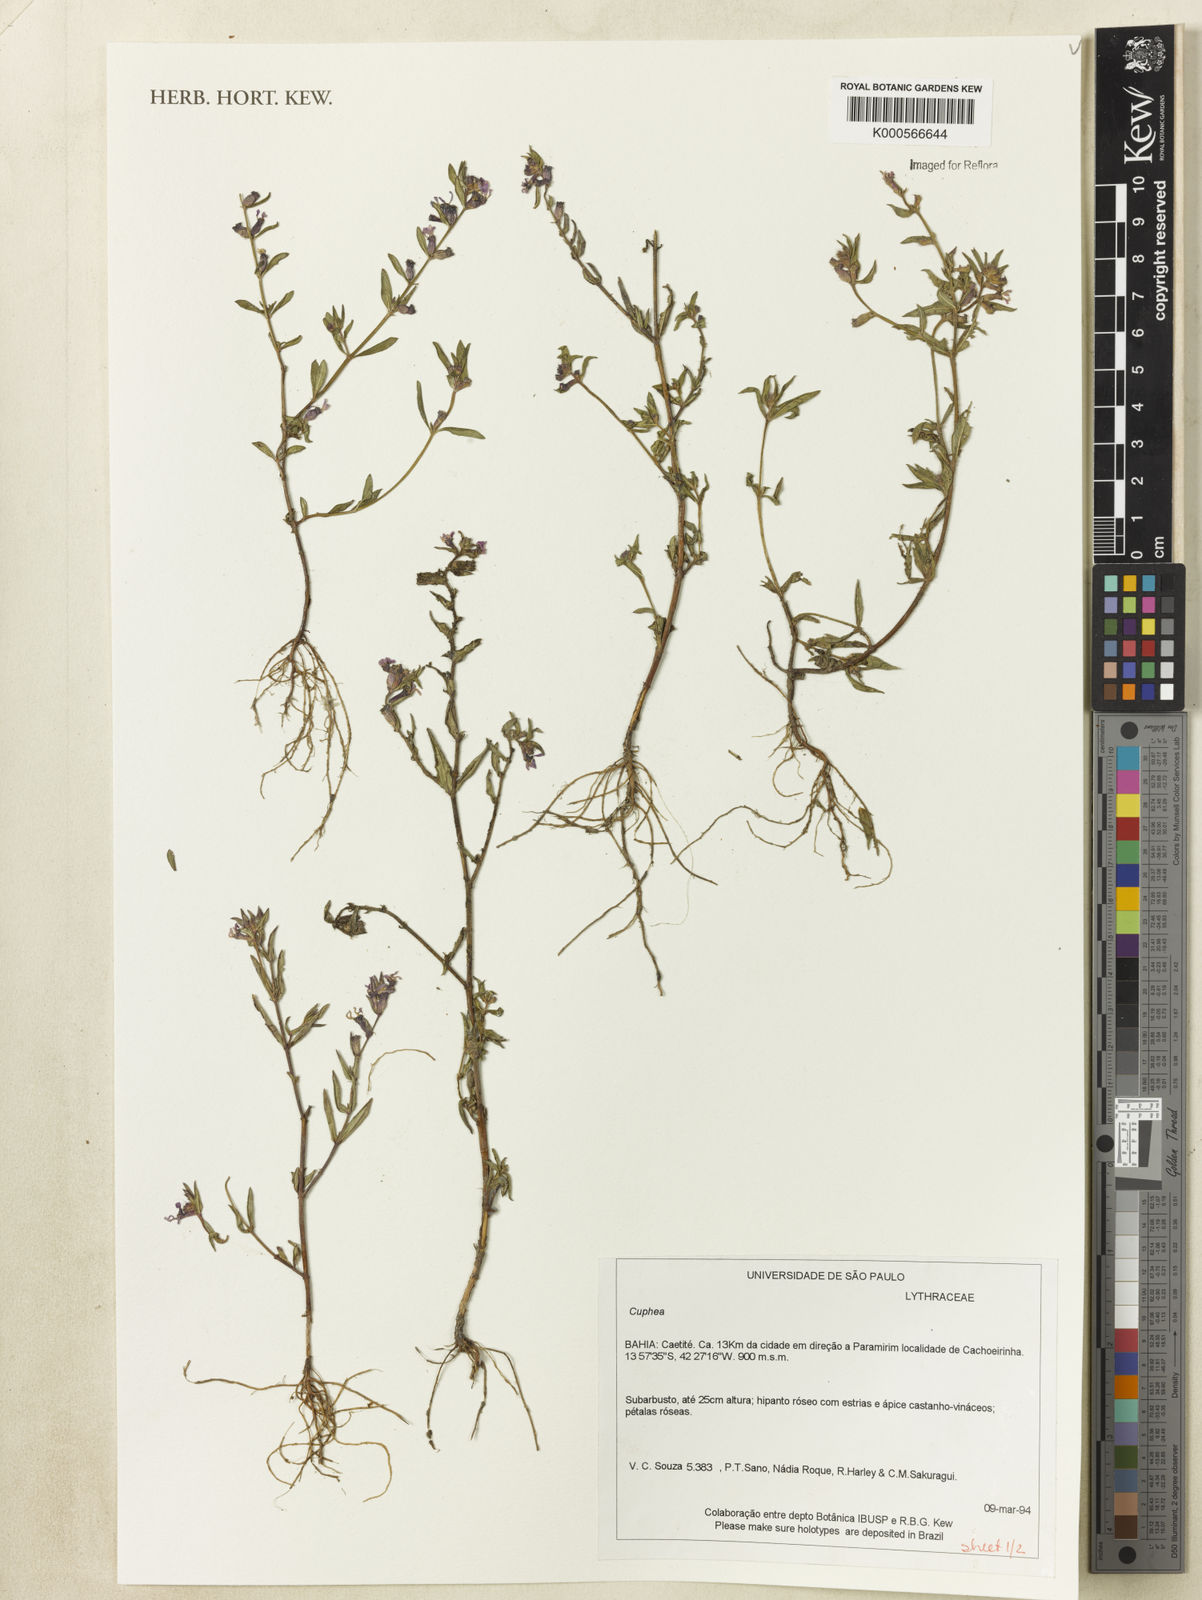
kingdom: Plantae
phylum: Tracheophyta
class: Magnoliopsida
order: Myrtales
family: Lythraceae
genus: Cuphea
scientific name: Cuphea
